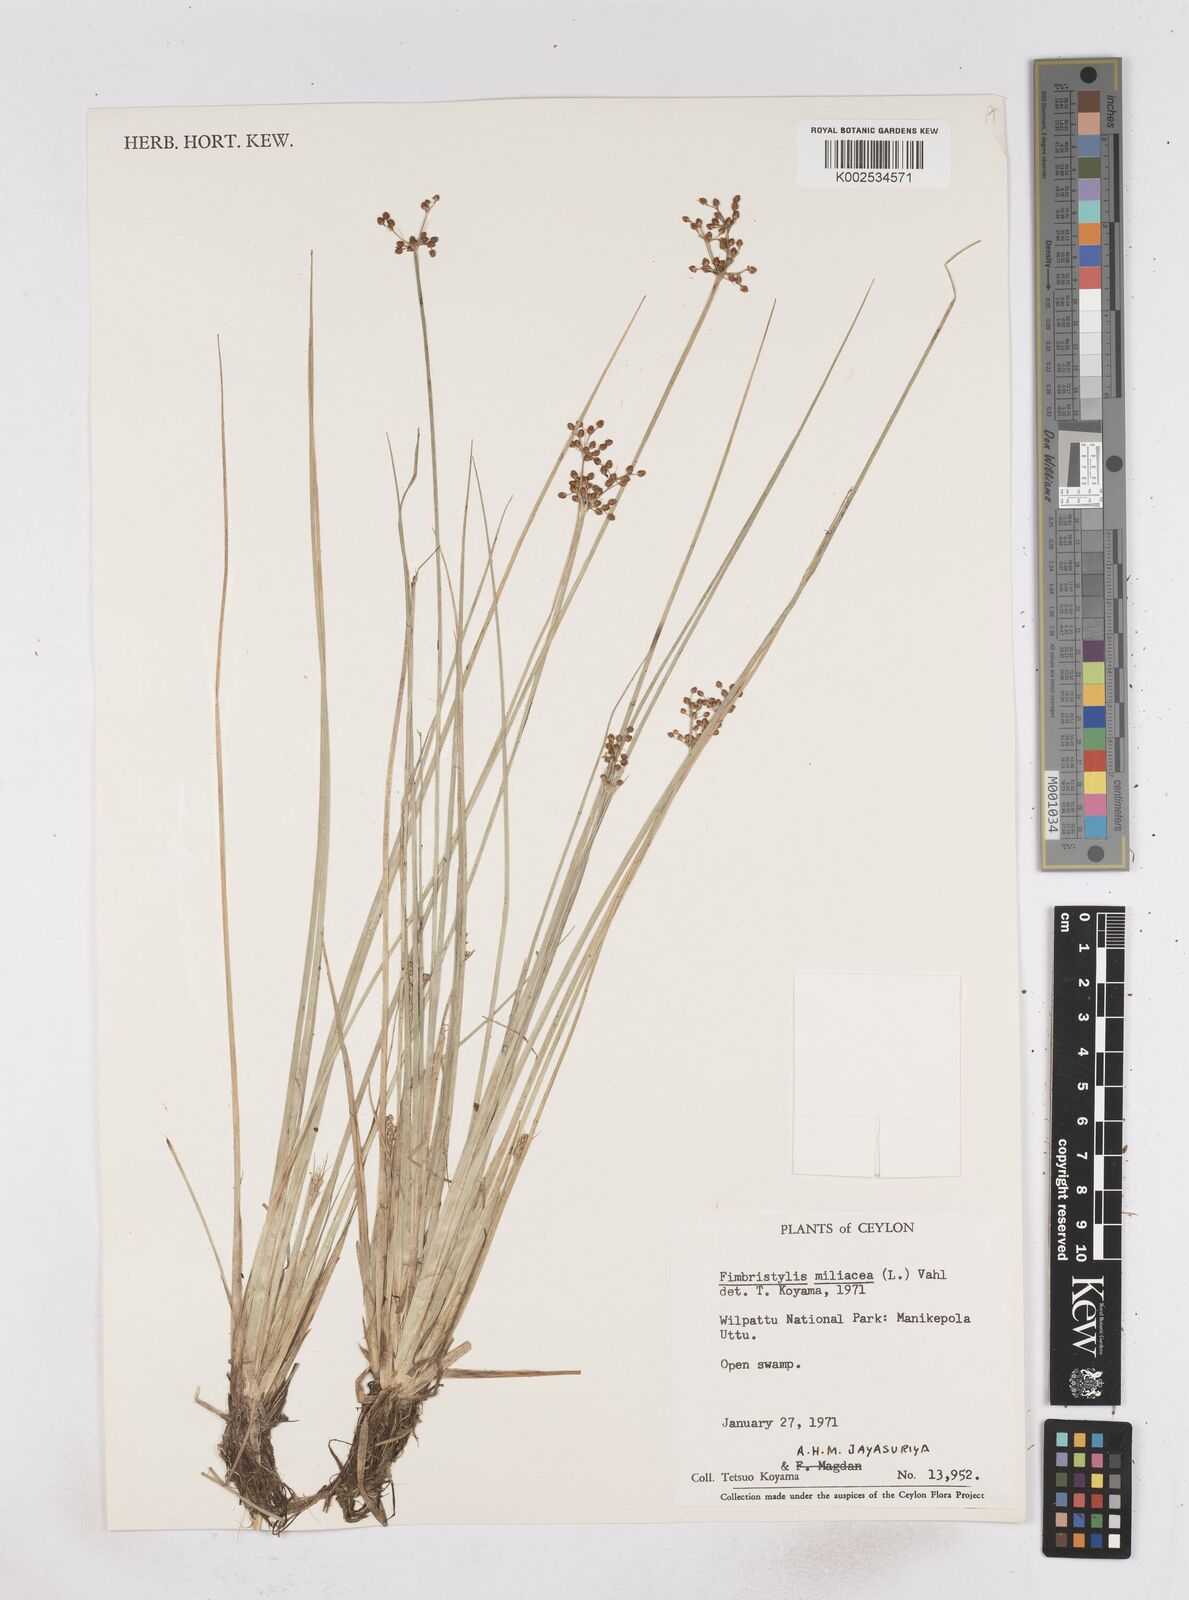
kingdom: Plantae
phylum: Tracheophyta
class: Liliopsida
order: Poales
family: Cyperaceae
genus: Fimbristylis
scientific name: Fimbristylis quinquangularis
